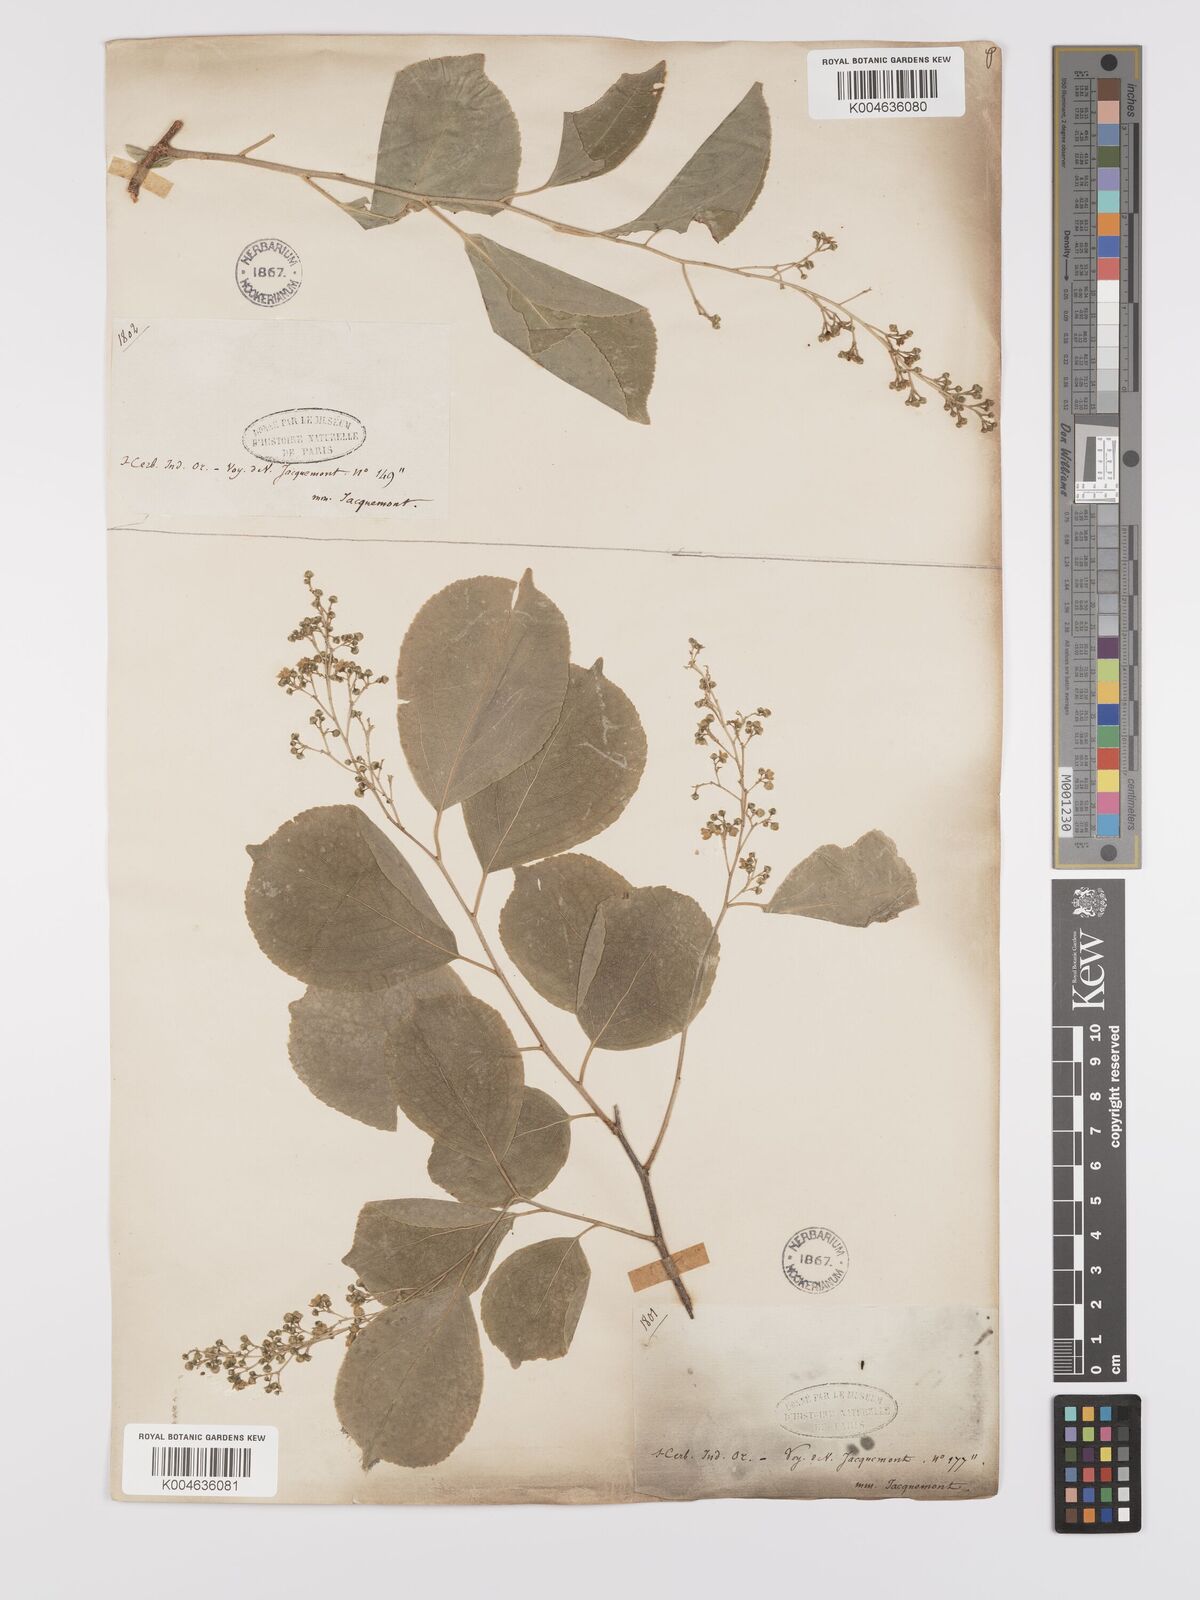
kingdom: Plantae
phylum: Tracheophyta
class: Magnoliopsida
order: Celastrales
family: Celastraceae
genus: Celastrus
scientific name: Celastrus paniculatus
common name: Oriental bittersweet; staff vine
